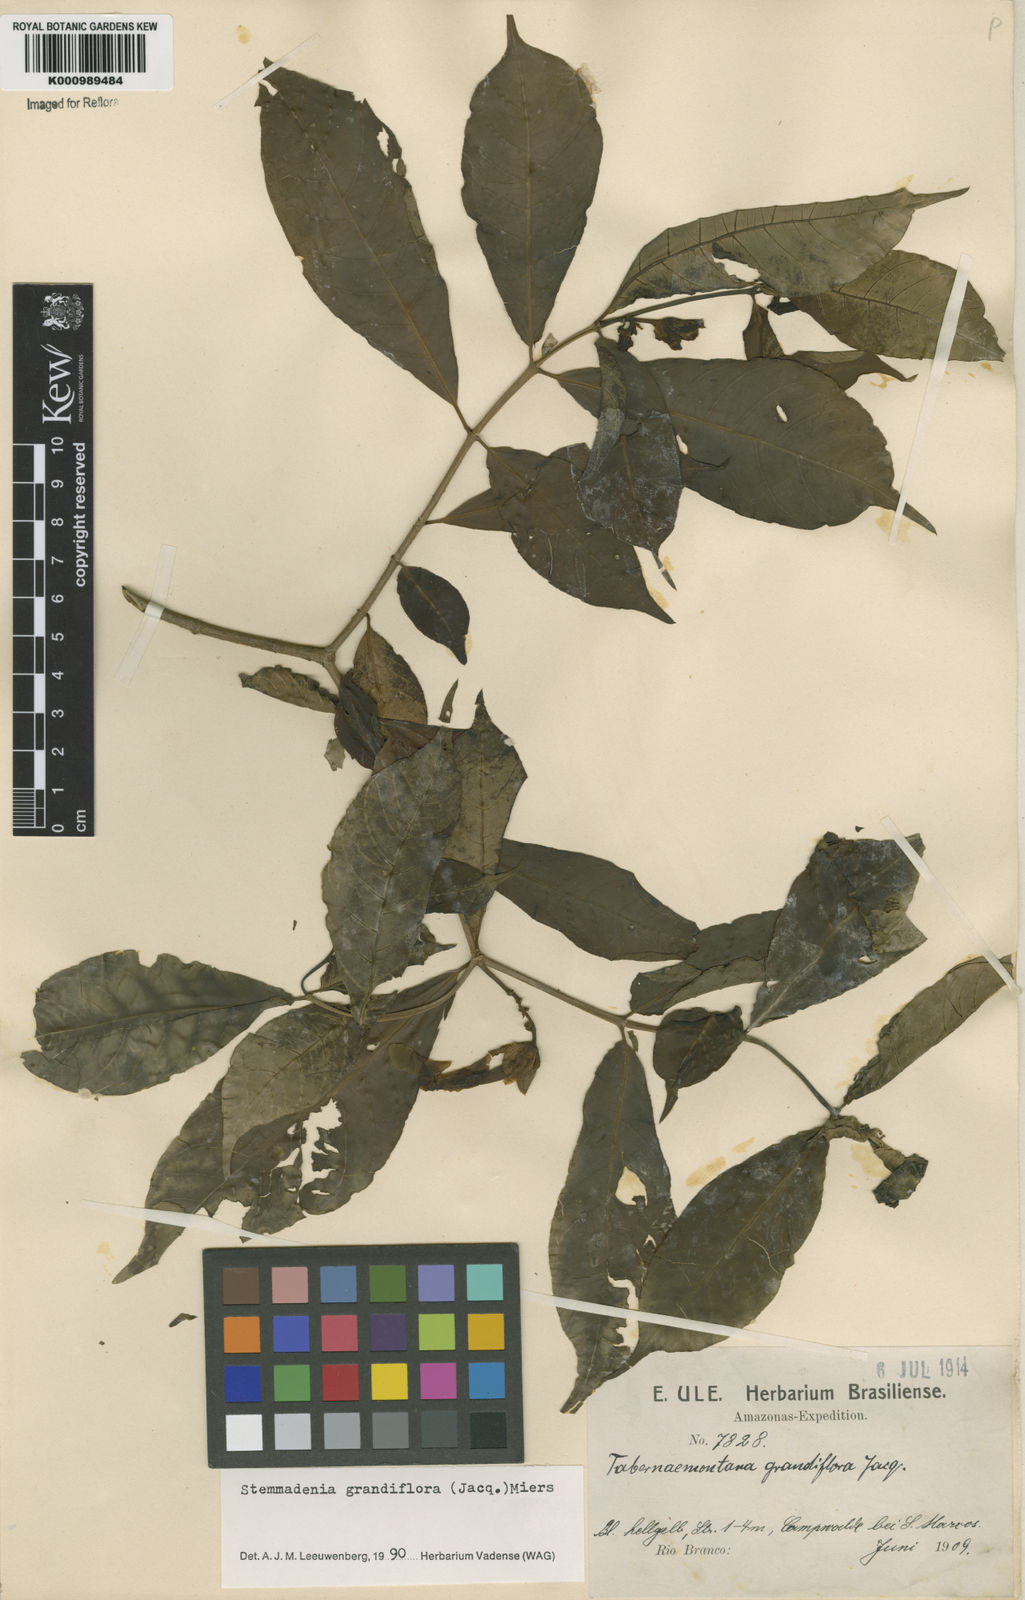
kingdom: Plantae
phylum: Tracheophyta
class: Magnoliopsida
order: Gentianales
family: Apocynaceae
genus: Tabernaemontana
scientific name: Tabernaemontana grandiflora
